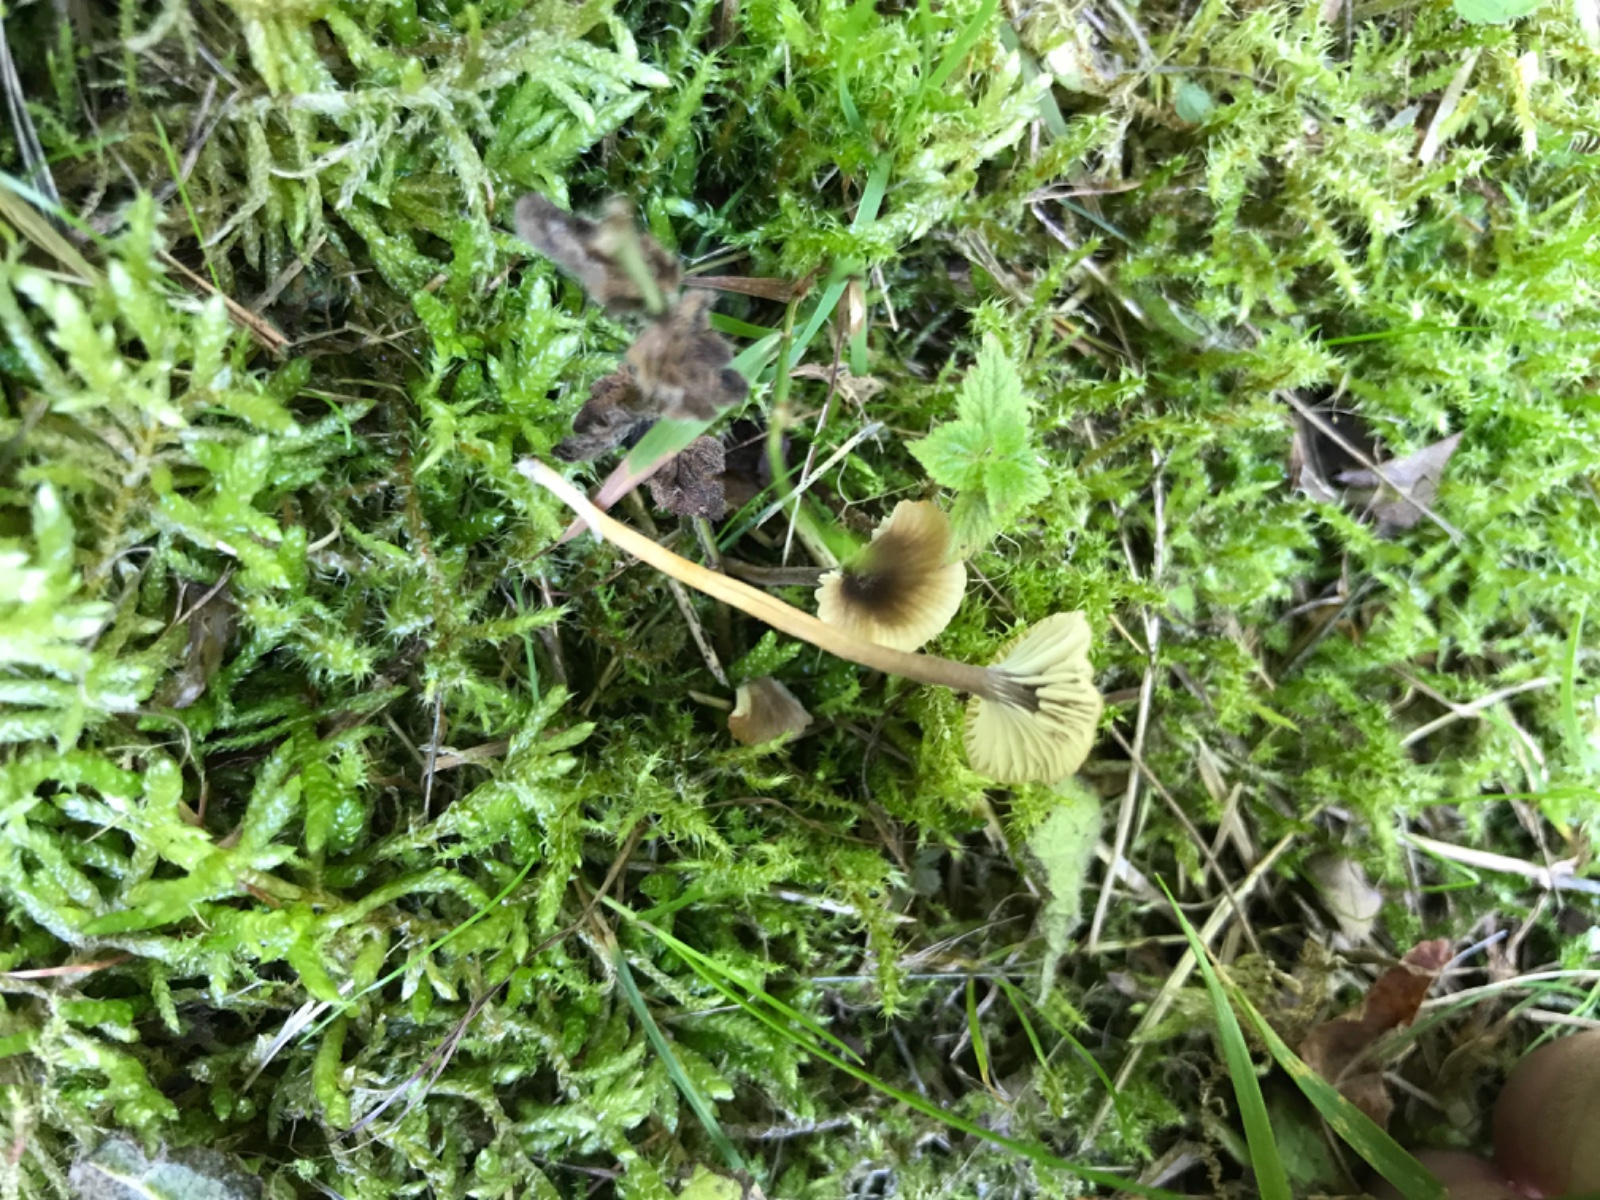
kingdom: Fungi
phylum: Basidiomycota
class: Agaricomycetes
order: Hymenochaetales
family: Rickenellaceae
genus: Rickenella
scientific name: Rickenella swartzii
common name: finstokket mosnavlehat
